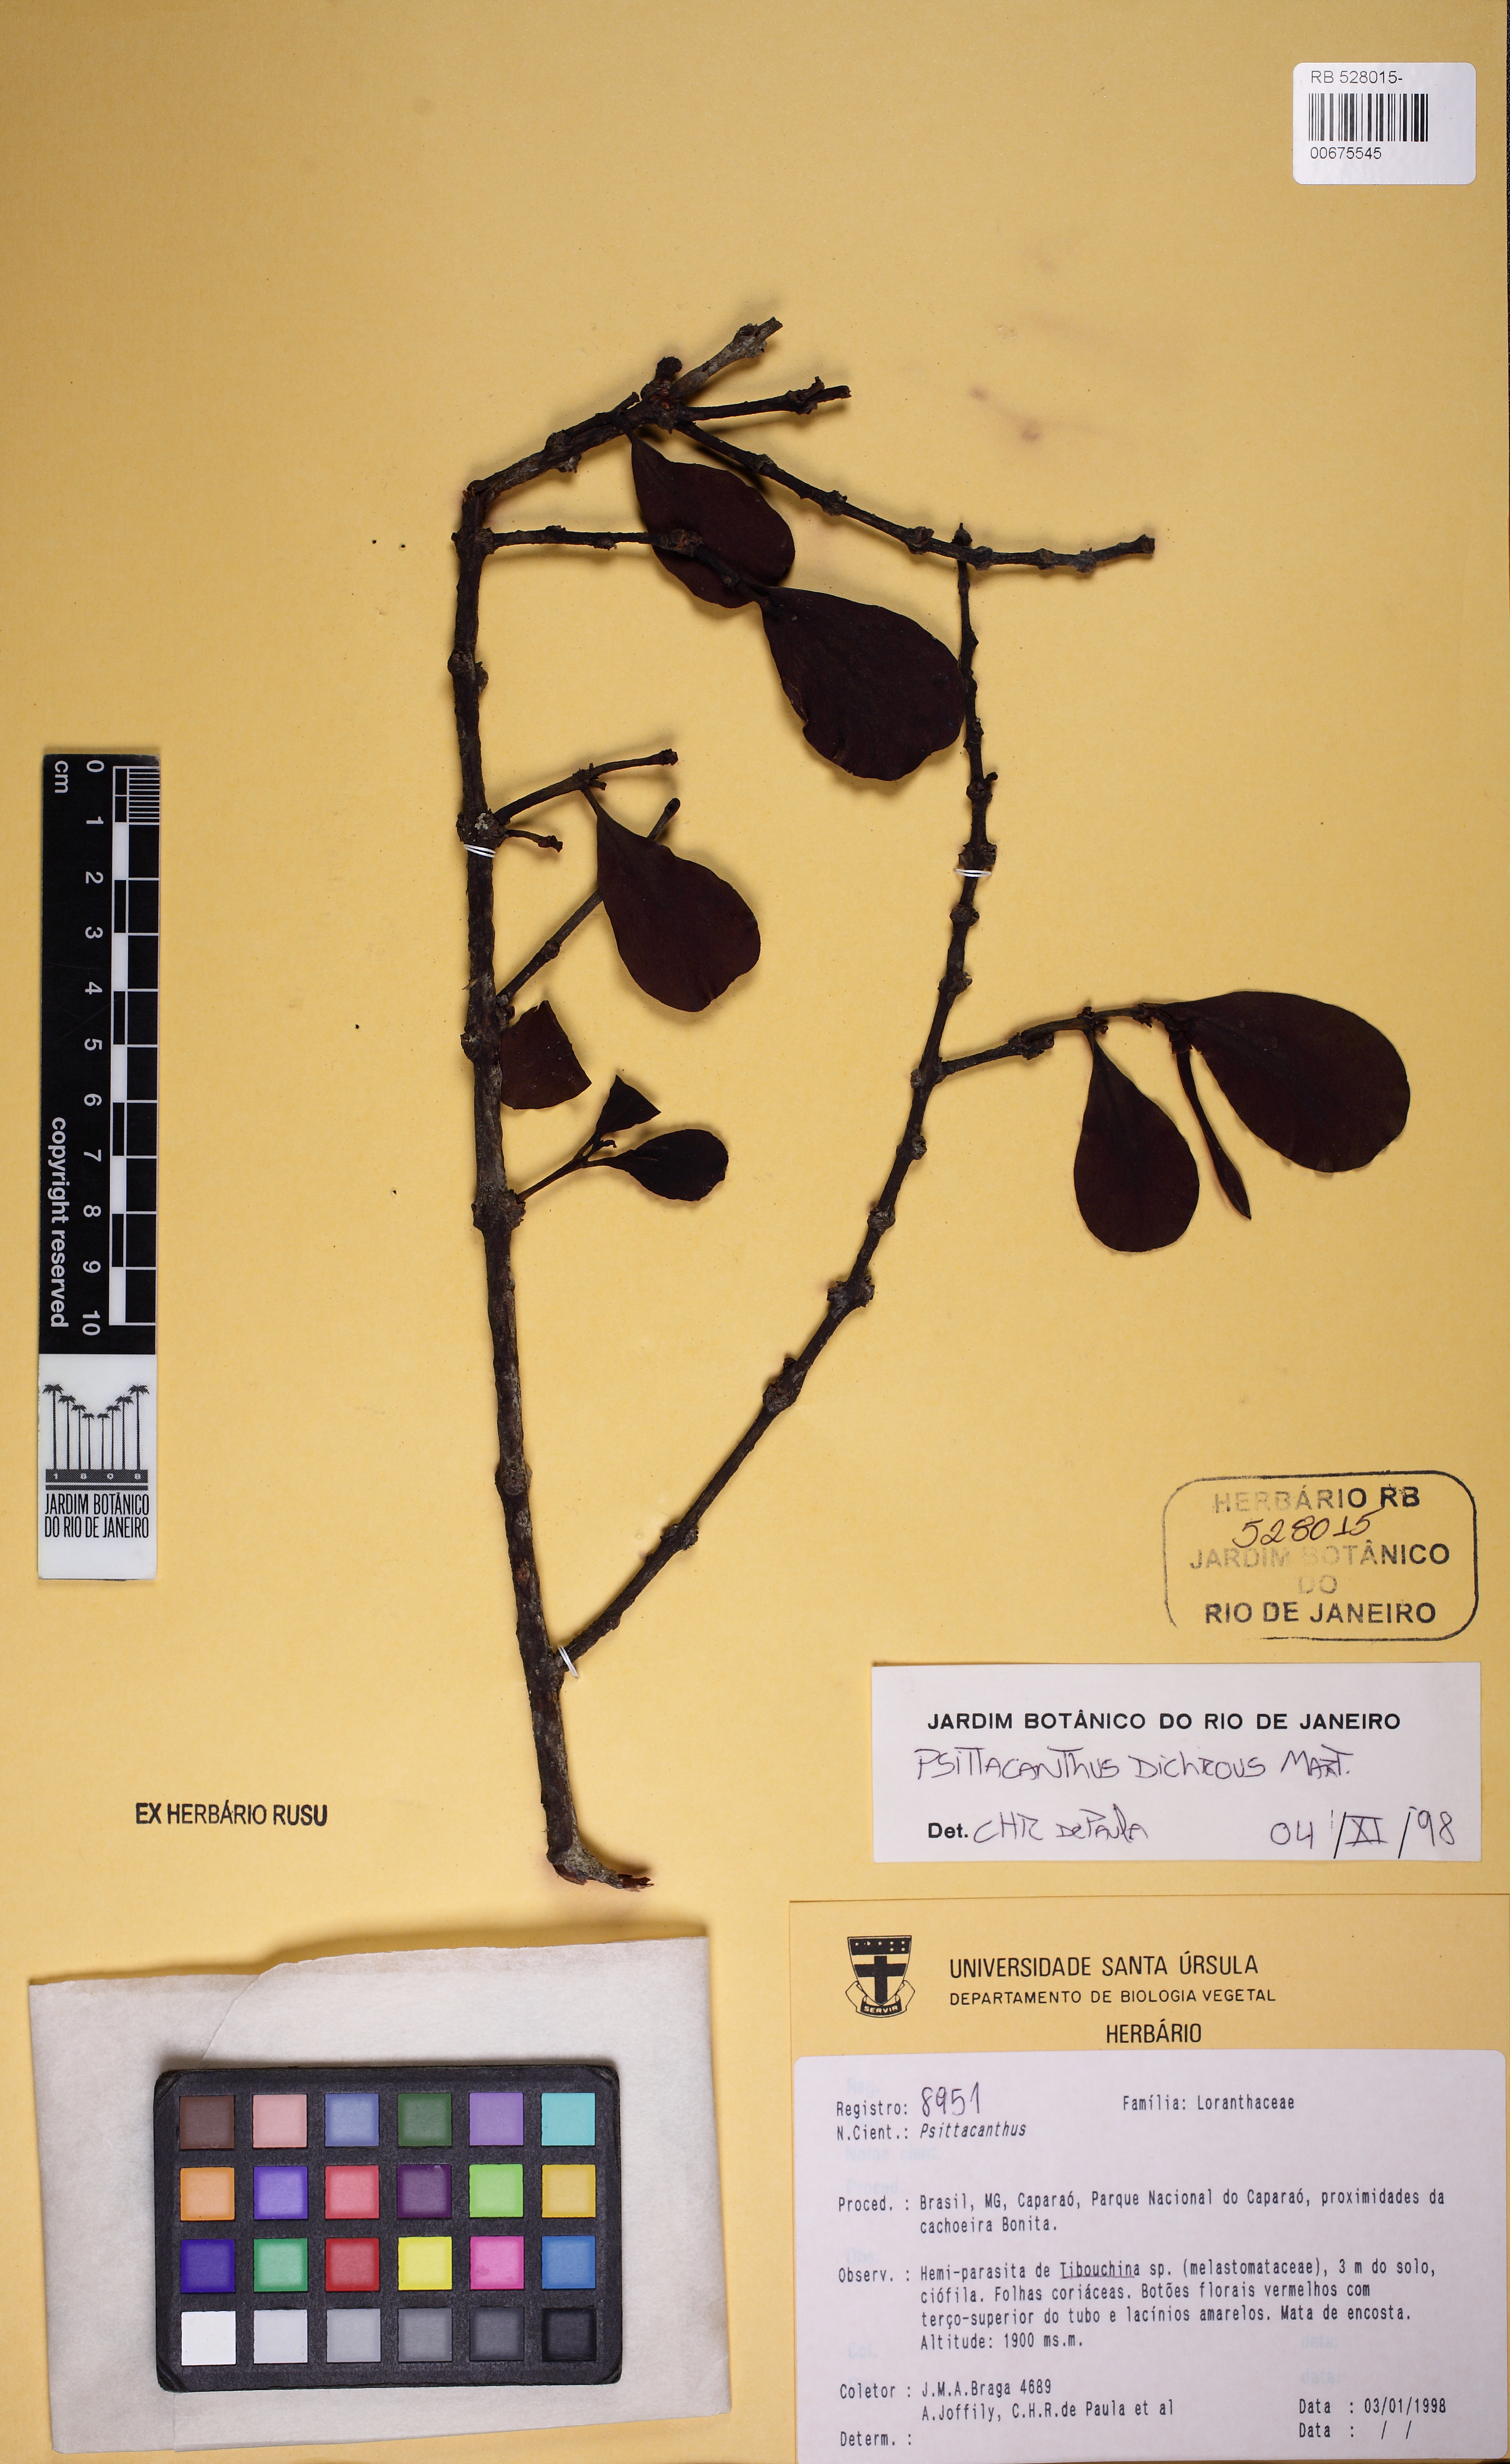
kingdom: Plantae
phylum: Tracheophyta
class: Magnoliopsida
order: Santalales
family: Loranthaceae
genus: Psittacanthus
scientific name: Psittacanthus dichroos
